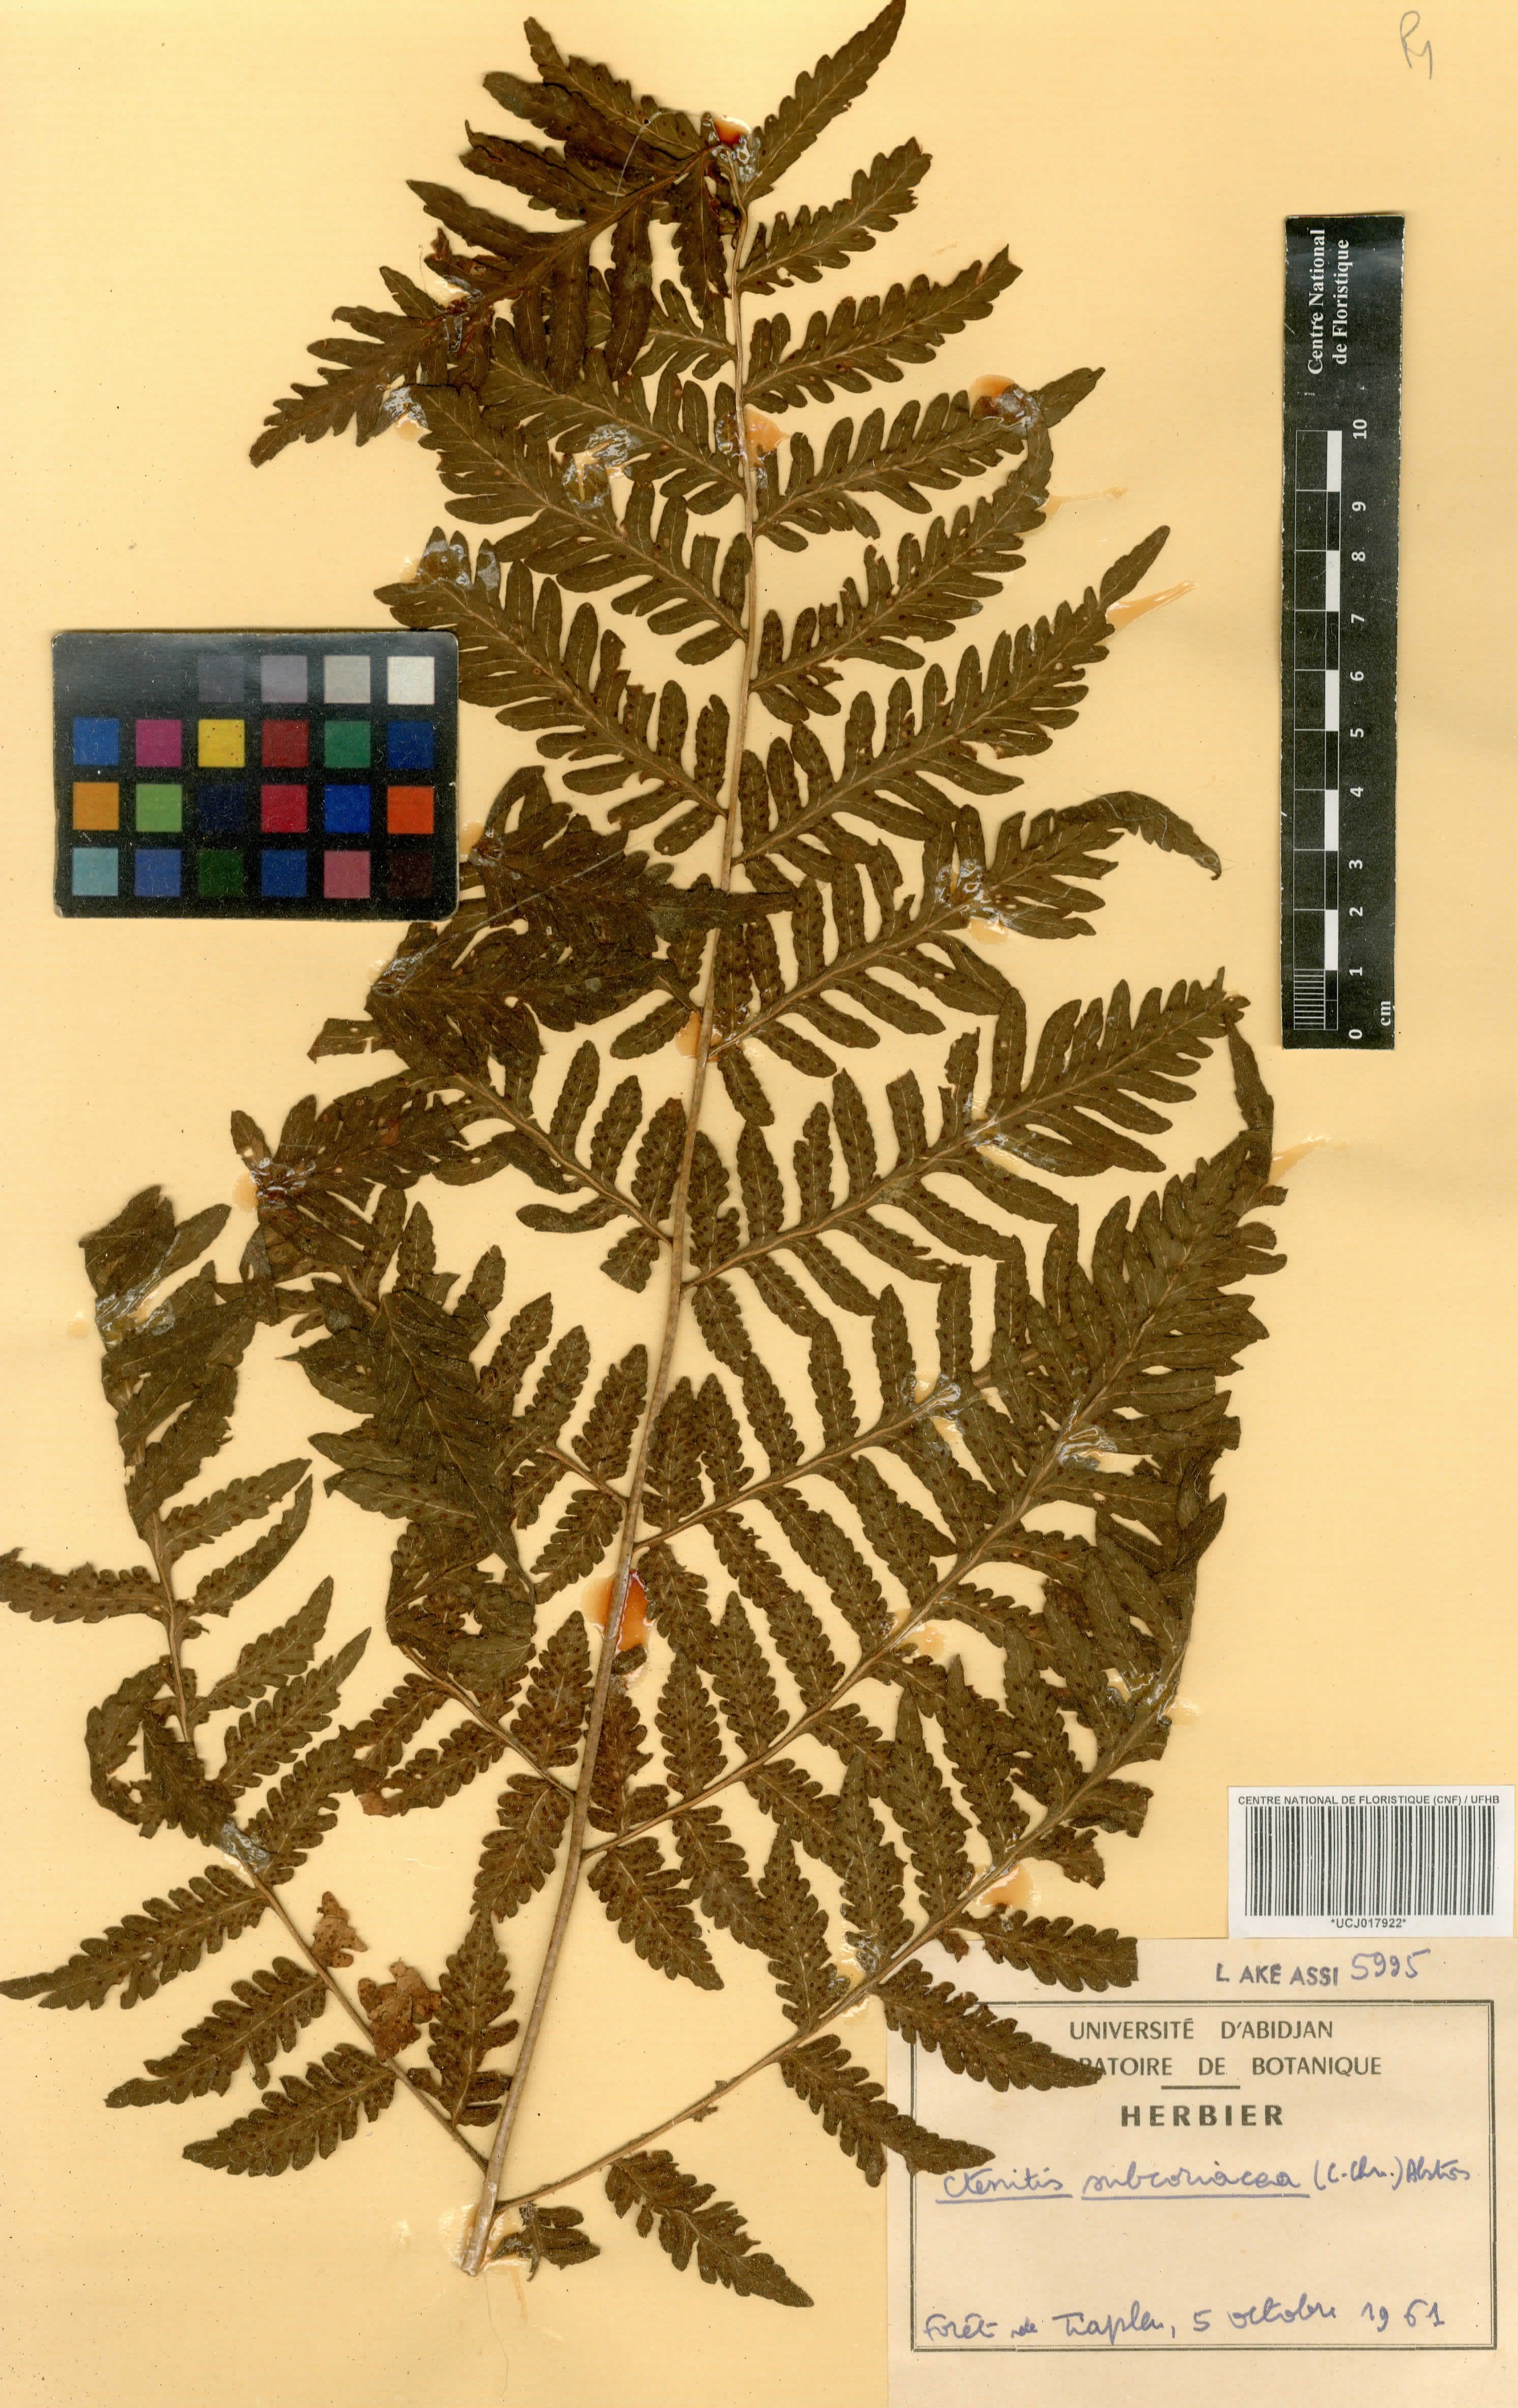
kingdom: Plantae
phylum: Tracheophyta
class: Polypodiopsida
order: Polypodiales
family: Dryopteridaceae
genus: Parapolystichum
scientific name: Parapolystichum vogelii
